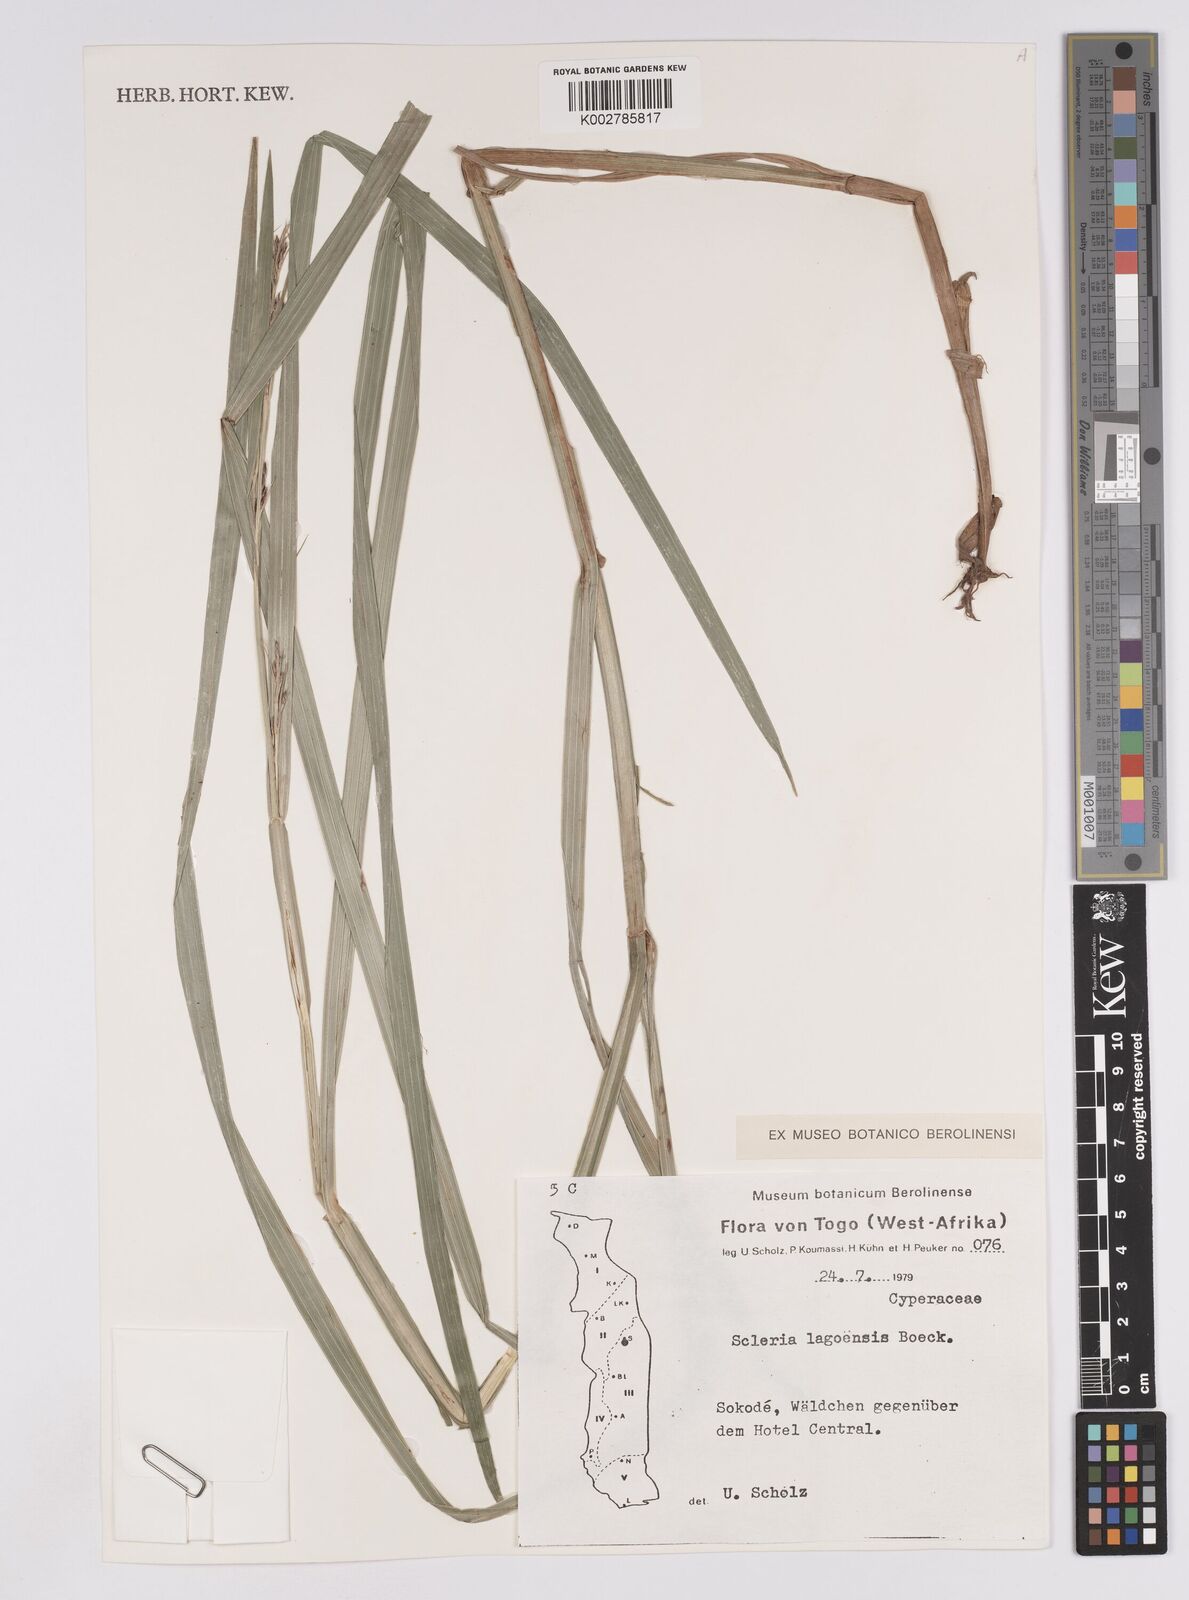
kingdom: Plantae
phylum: Tracheophyta
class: Liliopsida
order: Poales
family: Cyperaceae
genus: Scleria
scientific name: Scleria lagoensis
